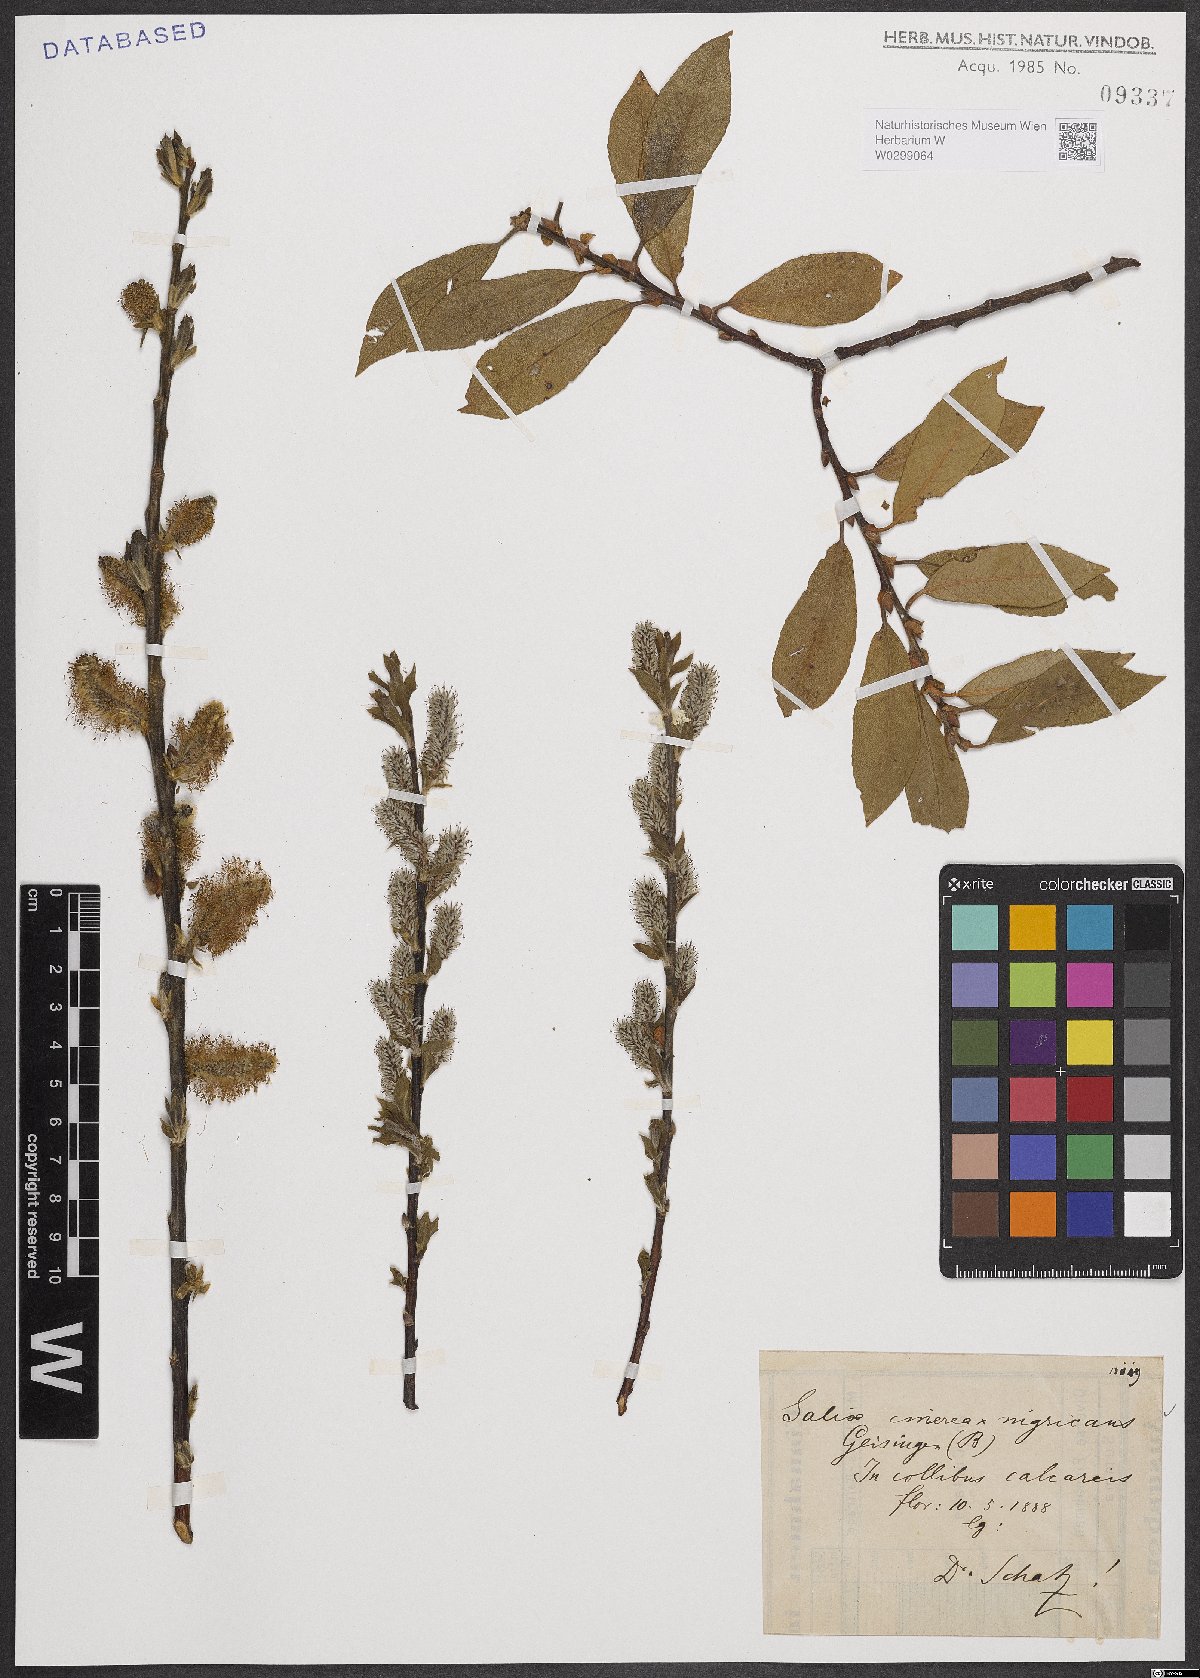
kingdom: Plantae
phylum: Tracheophyta
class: Magnoliopsida
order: Malpighiales
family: Salicaceae
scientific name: Salicaceae
